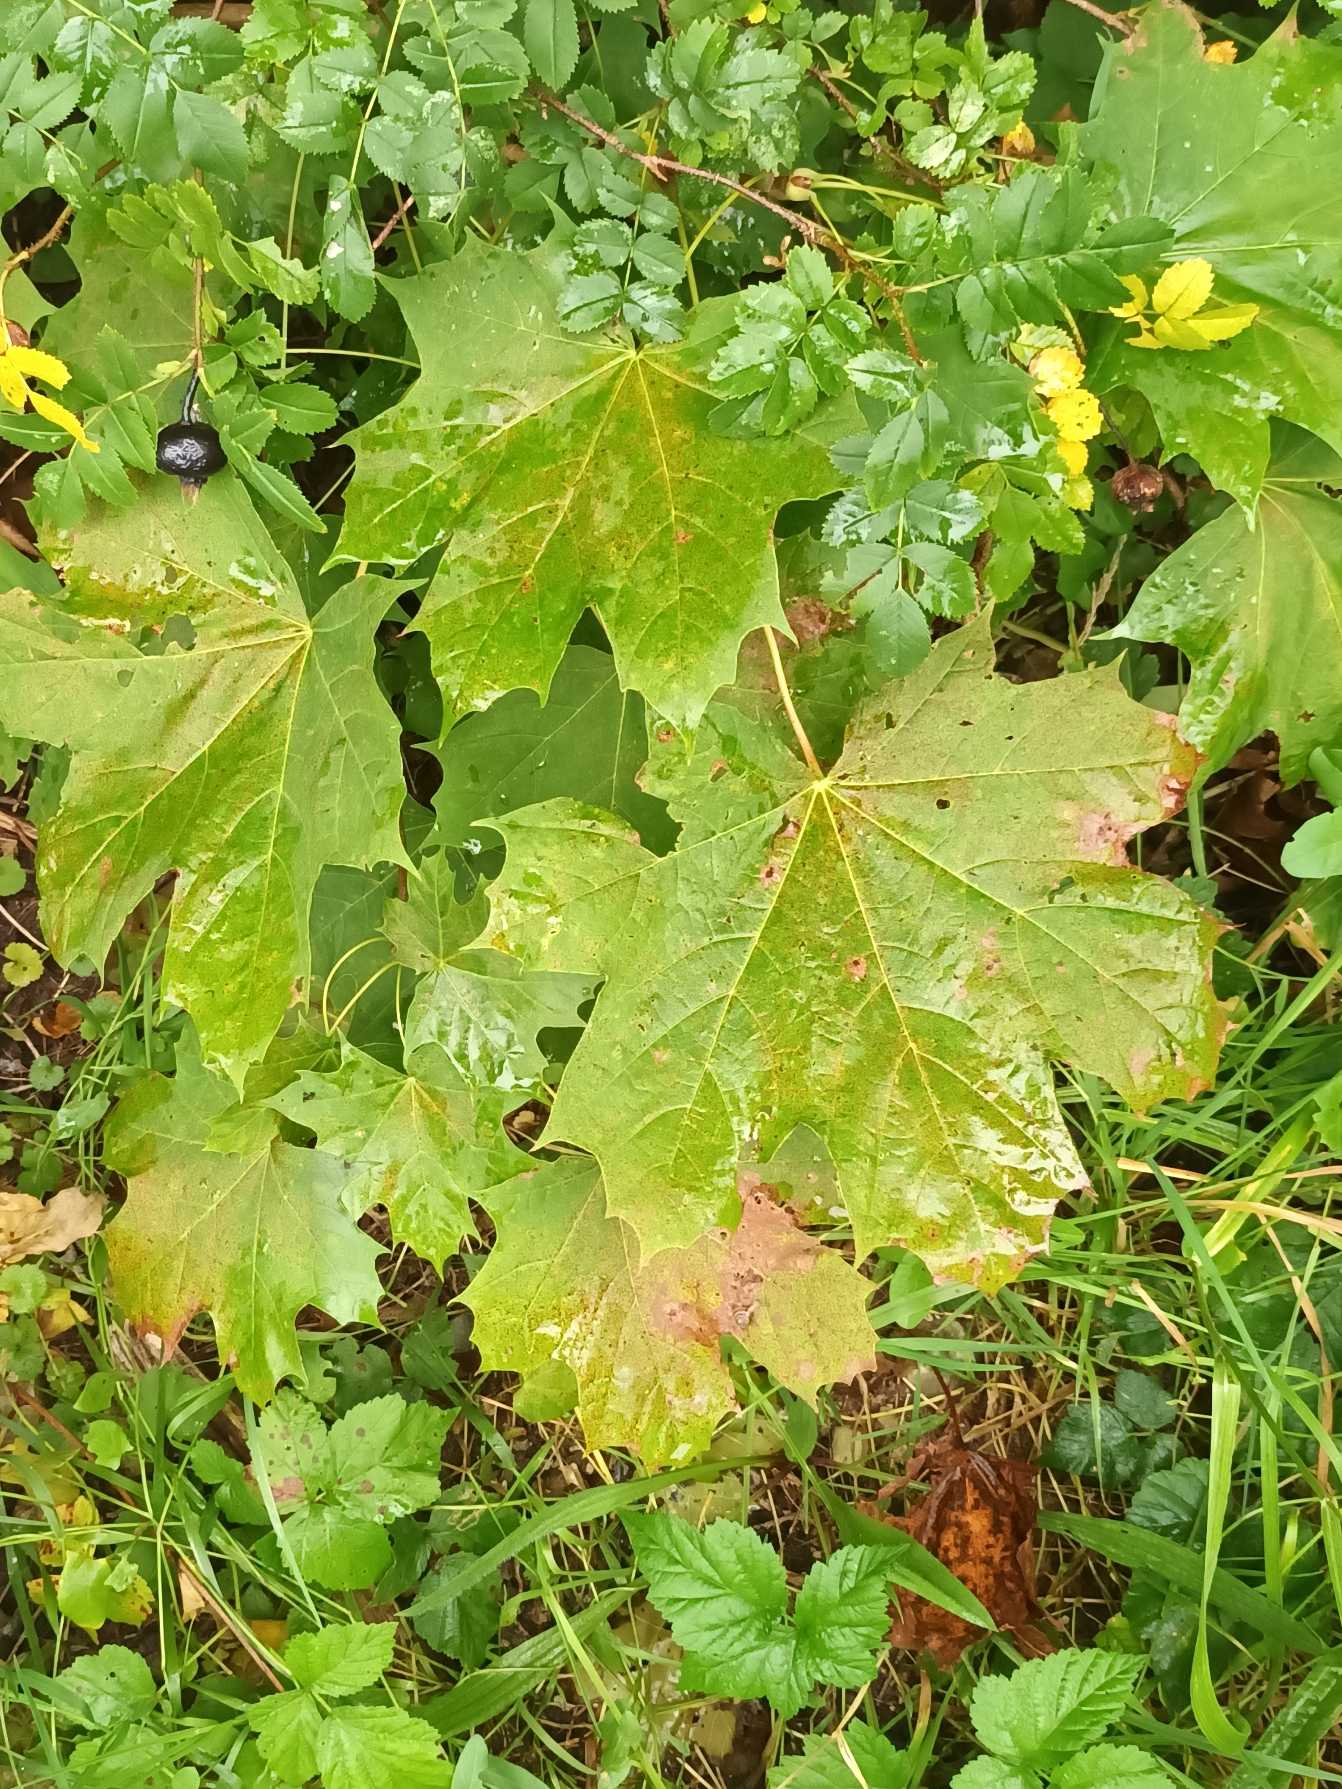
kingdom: Plantae
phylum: Tracheophyta
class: Magnoliopsida
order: Sapindales
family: Sapindaceae
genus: Acer
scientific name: Acer platanoides
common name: Spids-løn
